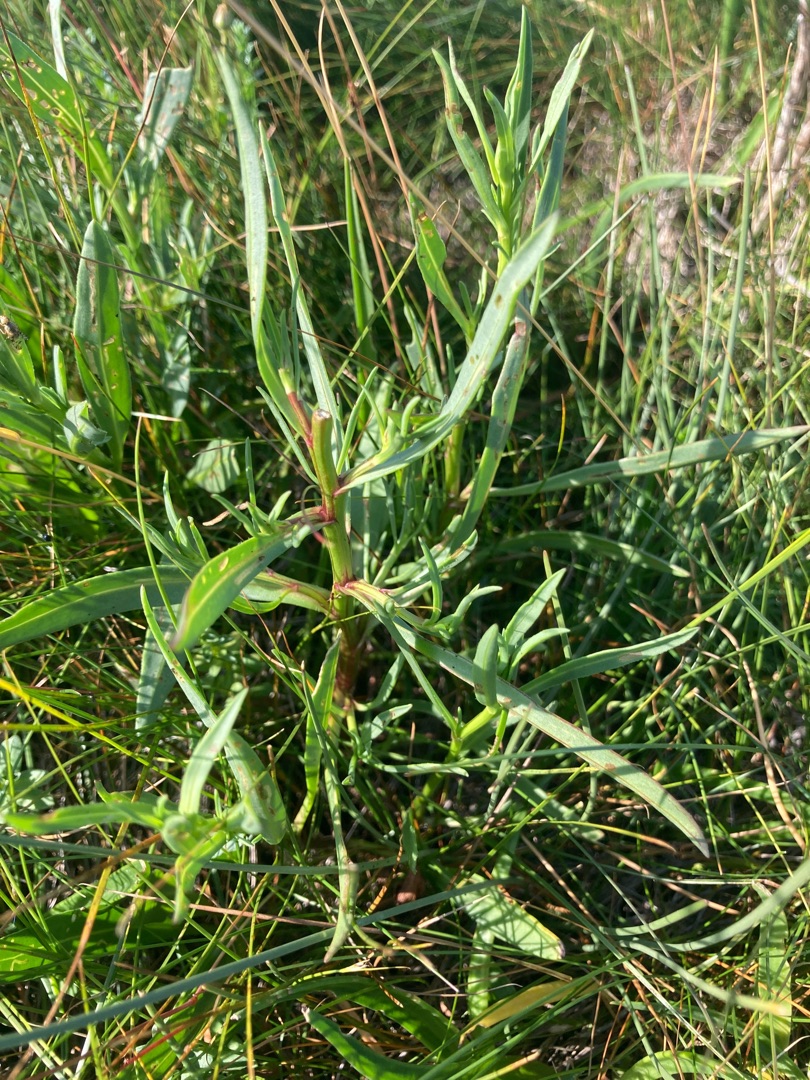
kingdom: Plantae
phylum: Tracheophyta
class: Magnoliopsida
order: Asterales
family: Asteraceae
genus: Tripolium
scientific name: Tripolium pannonicum
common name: Strandasters
